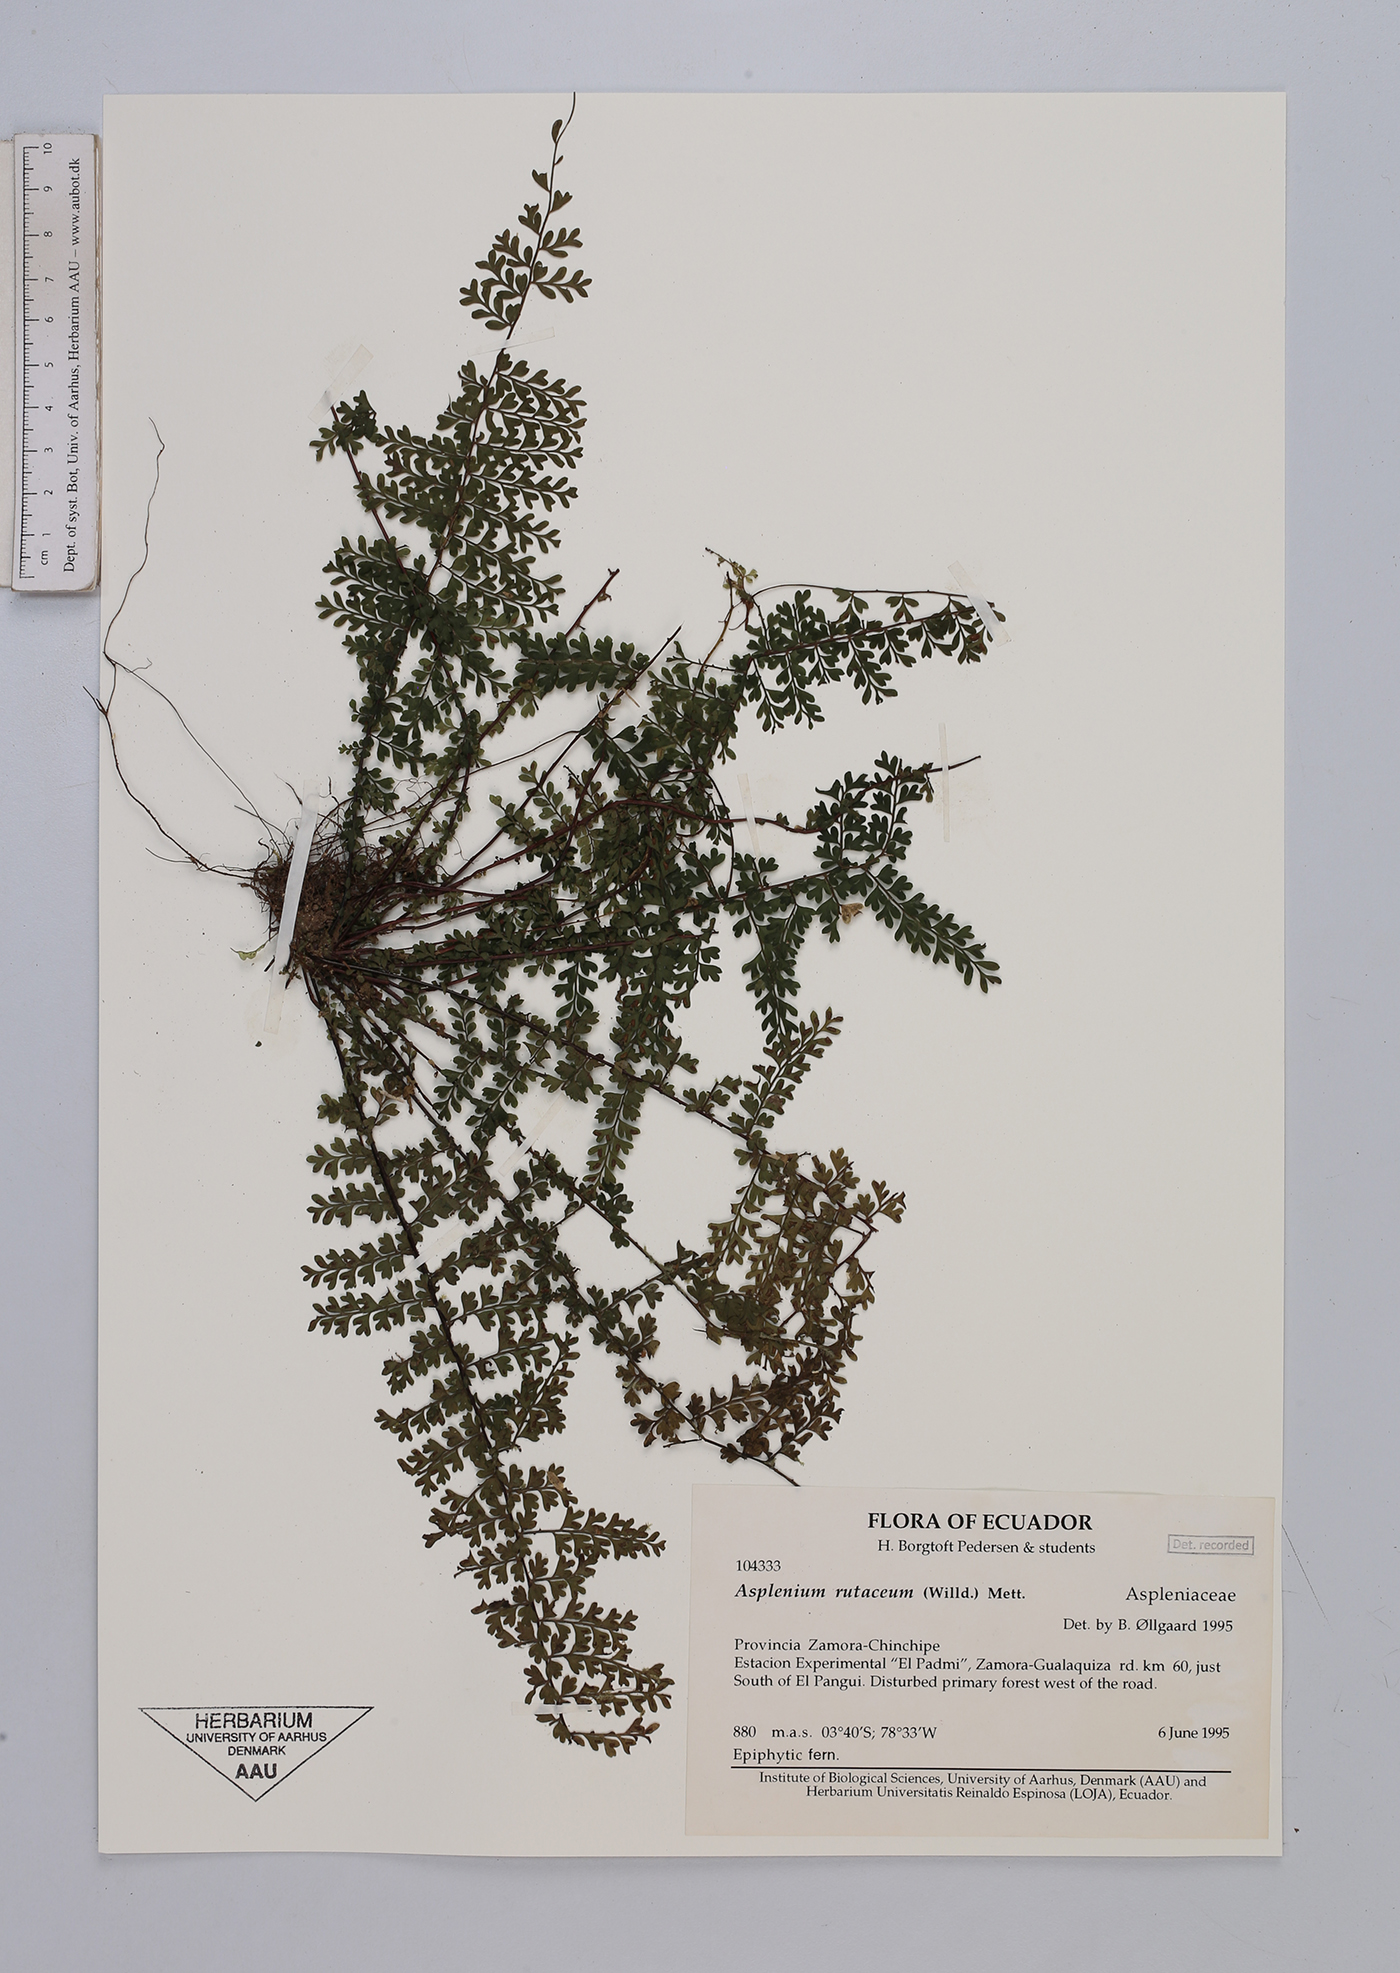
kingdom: Plantae
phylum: Tracheophyta
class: Polypodiopsida
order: Polypodiales
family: Aspleniaceae
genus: Asplenium
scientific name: Asplenium rutaceum
